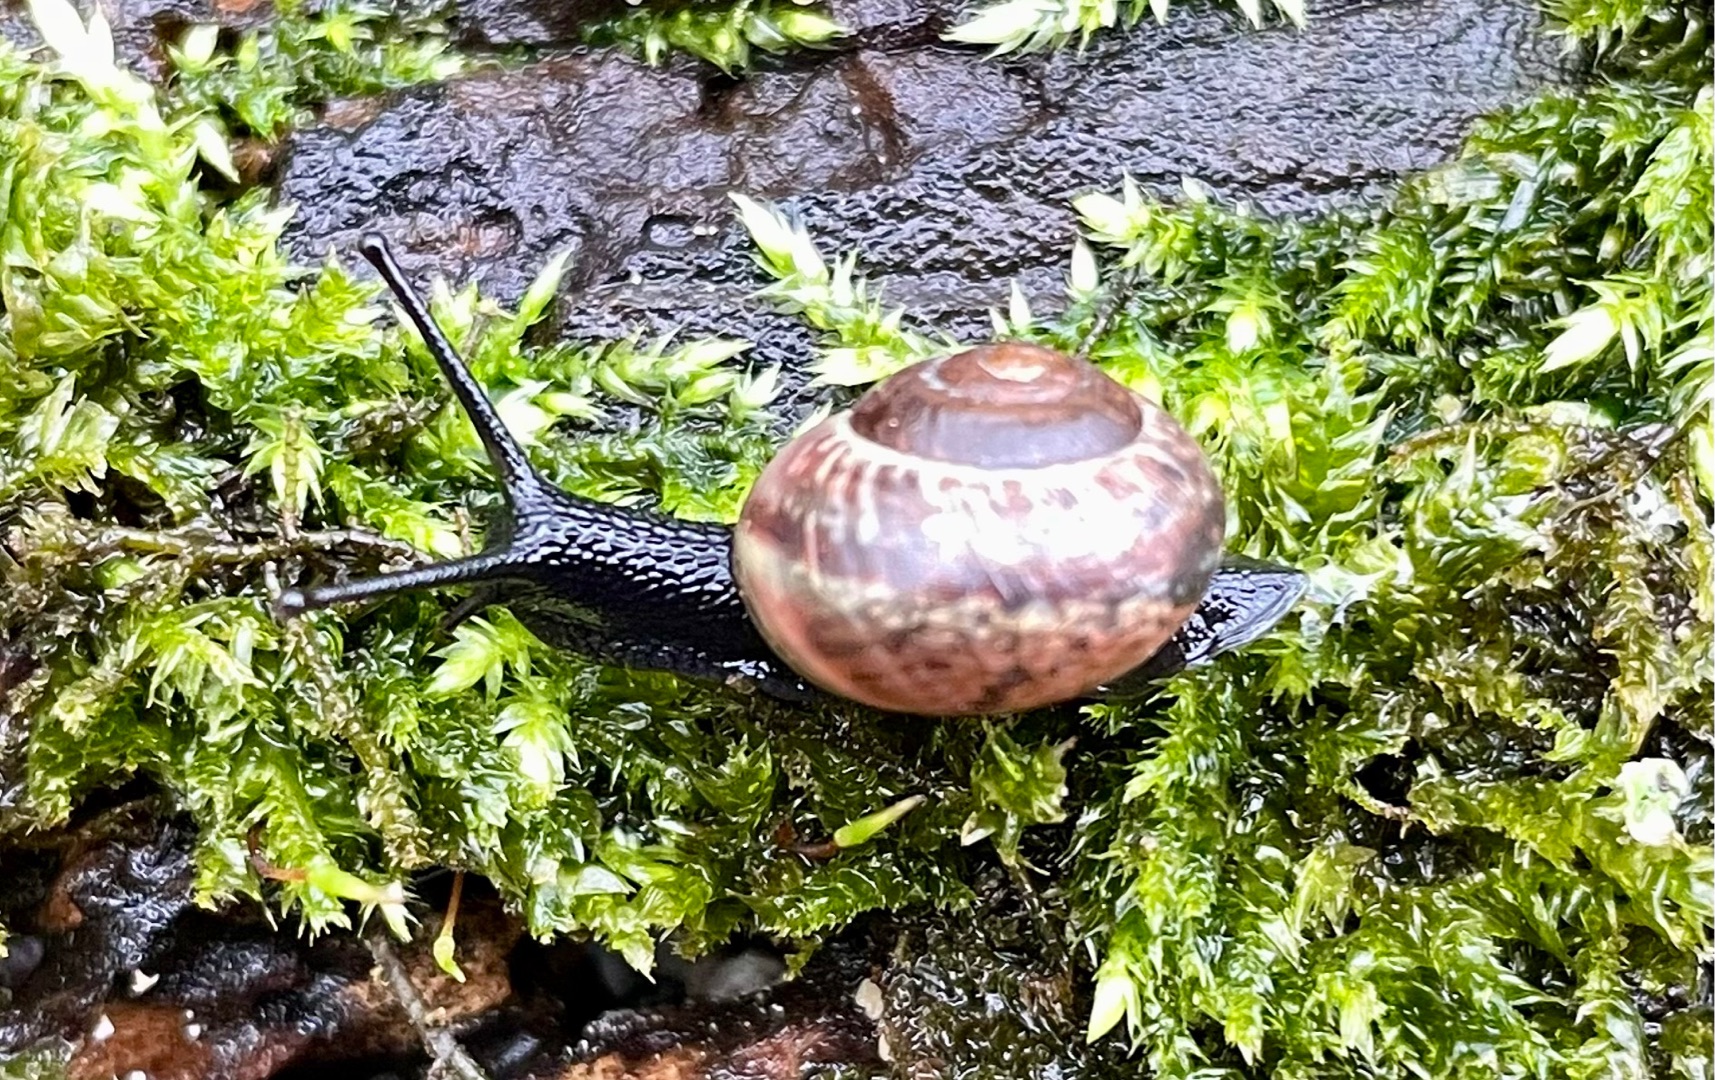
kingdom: Animalia
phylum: Mollusca
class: Gastropoda
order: Stylommatophora
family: Helicidae
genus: Arianta
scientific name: Arianta arbustorum
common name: Kratsnegl
